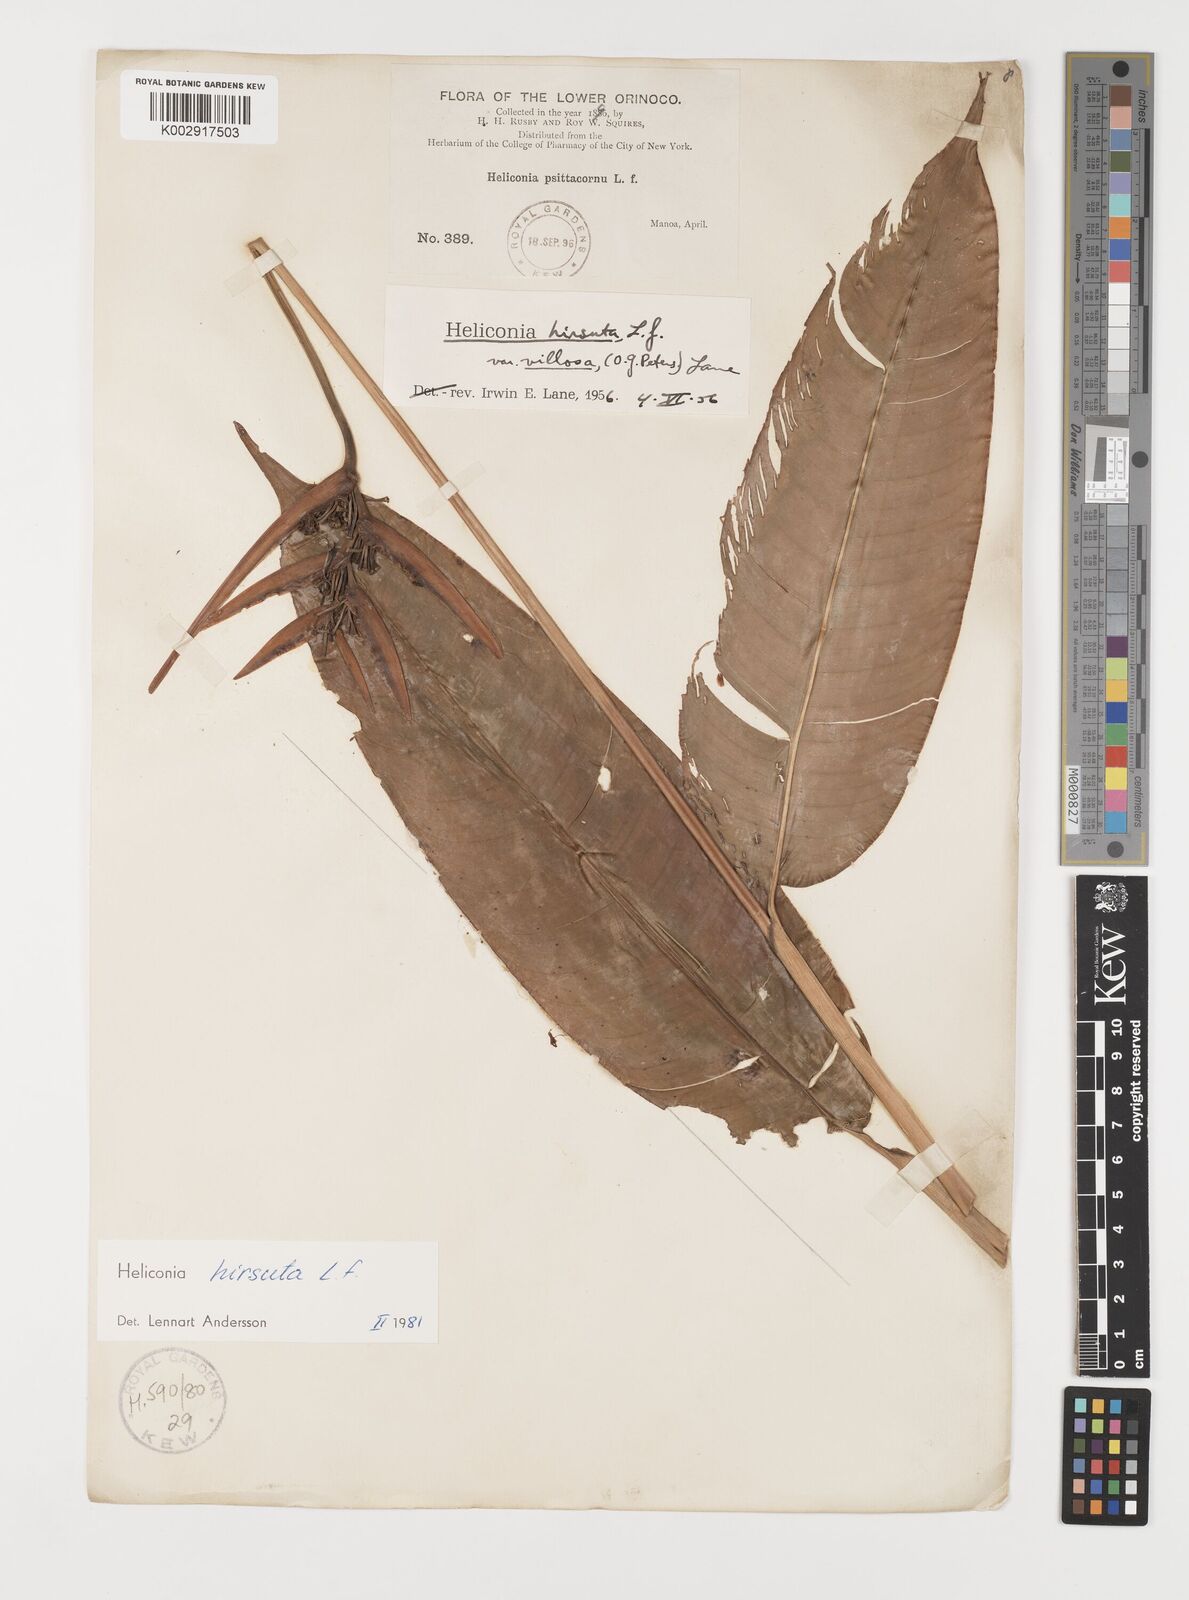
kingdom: Plantae
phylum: Tracheophyta
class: Liliopsida
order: Zingiberales
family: Heliconiaceae
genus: Heliconia
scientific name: Heliconia hirsuta
